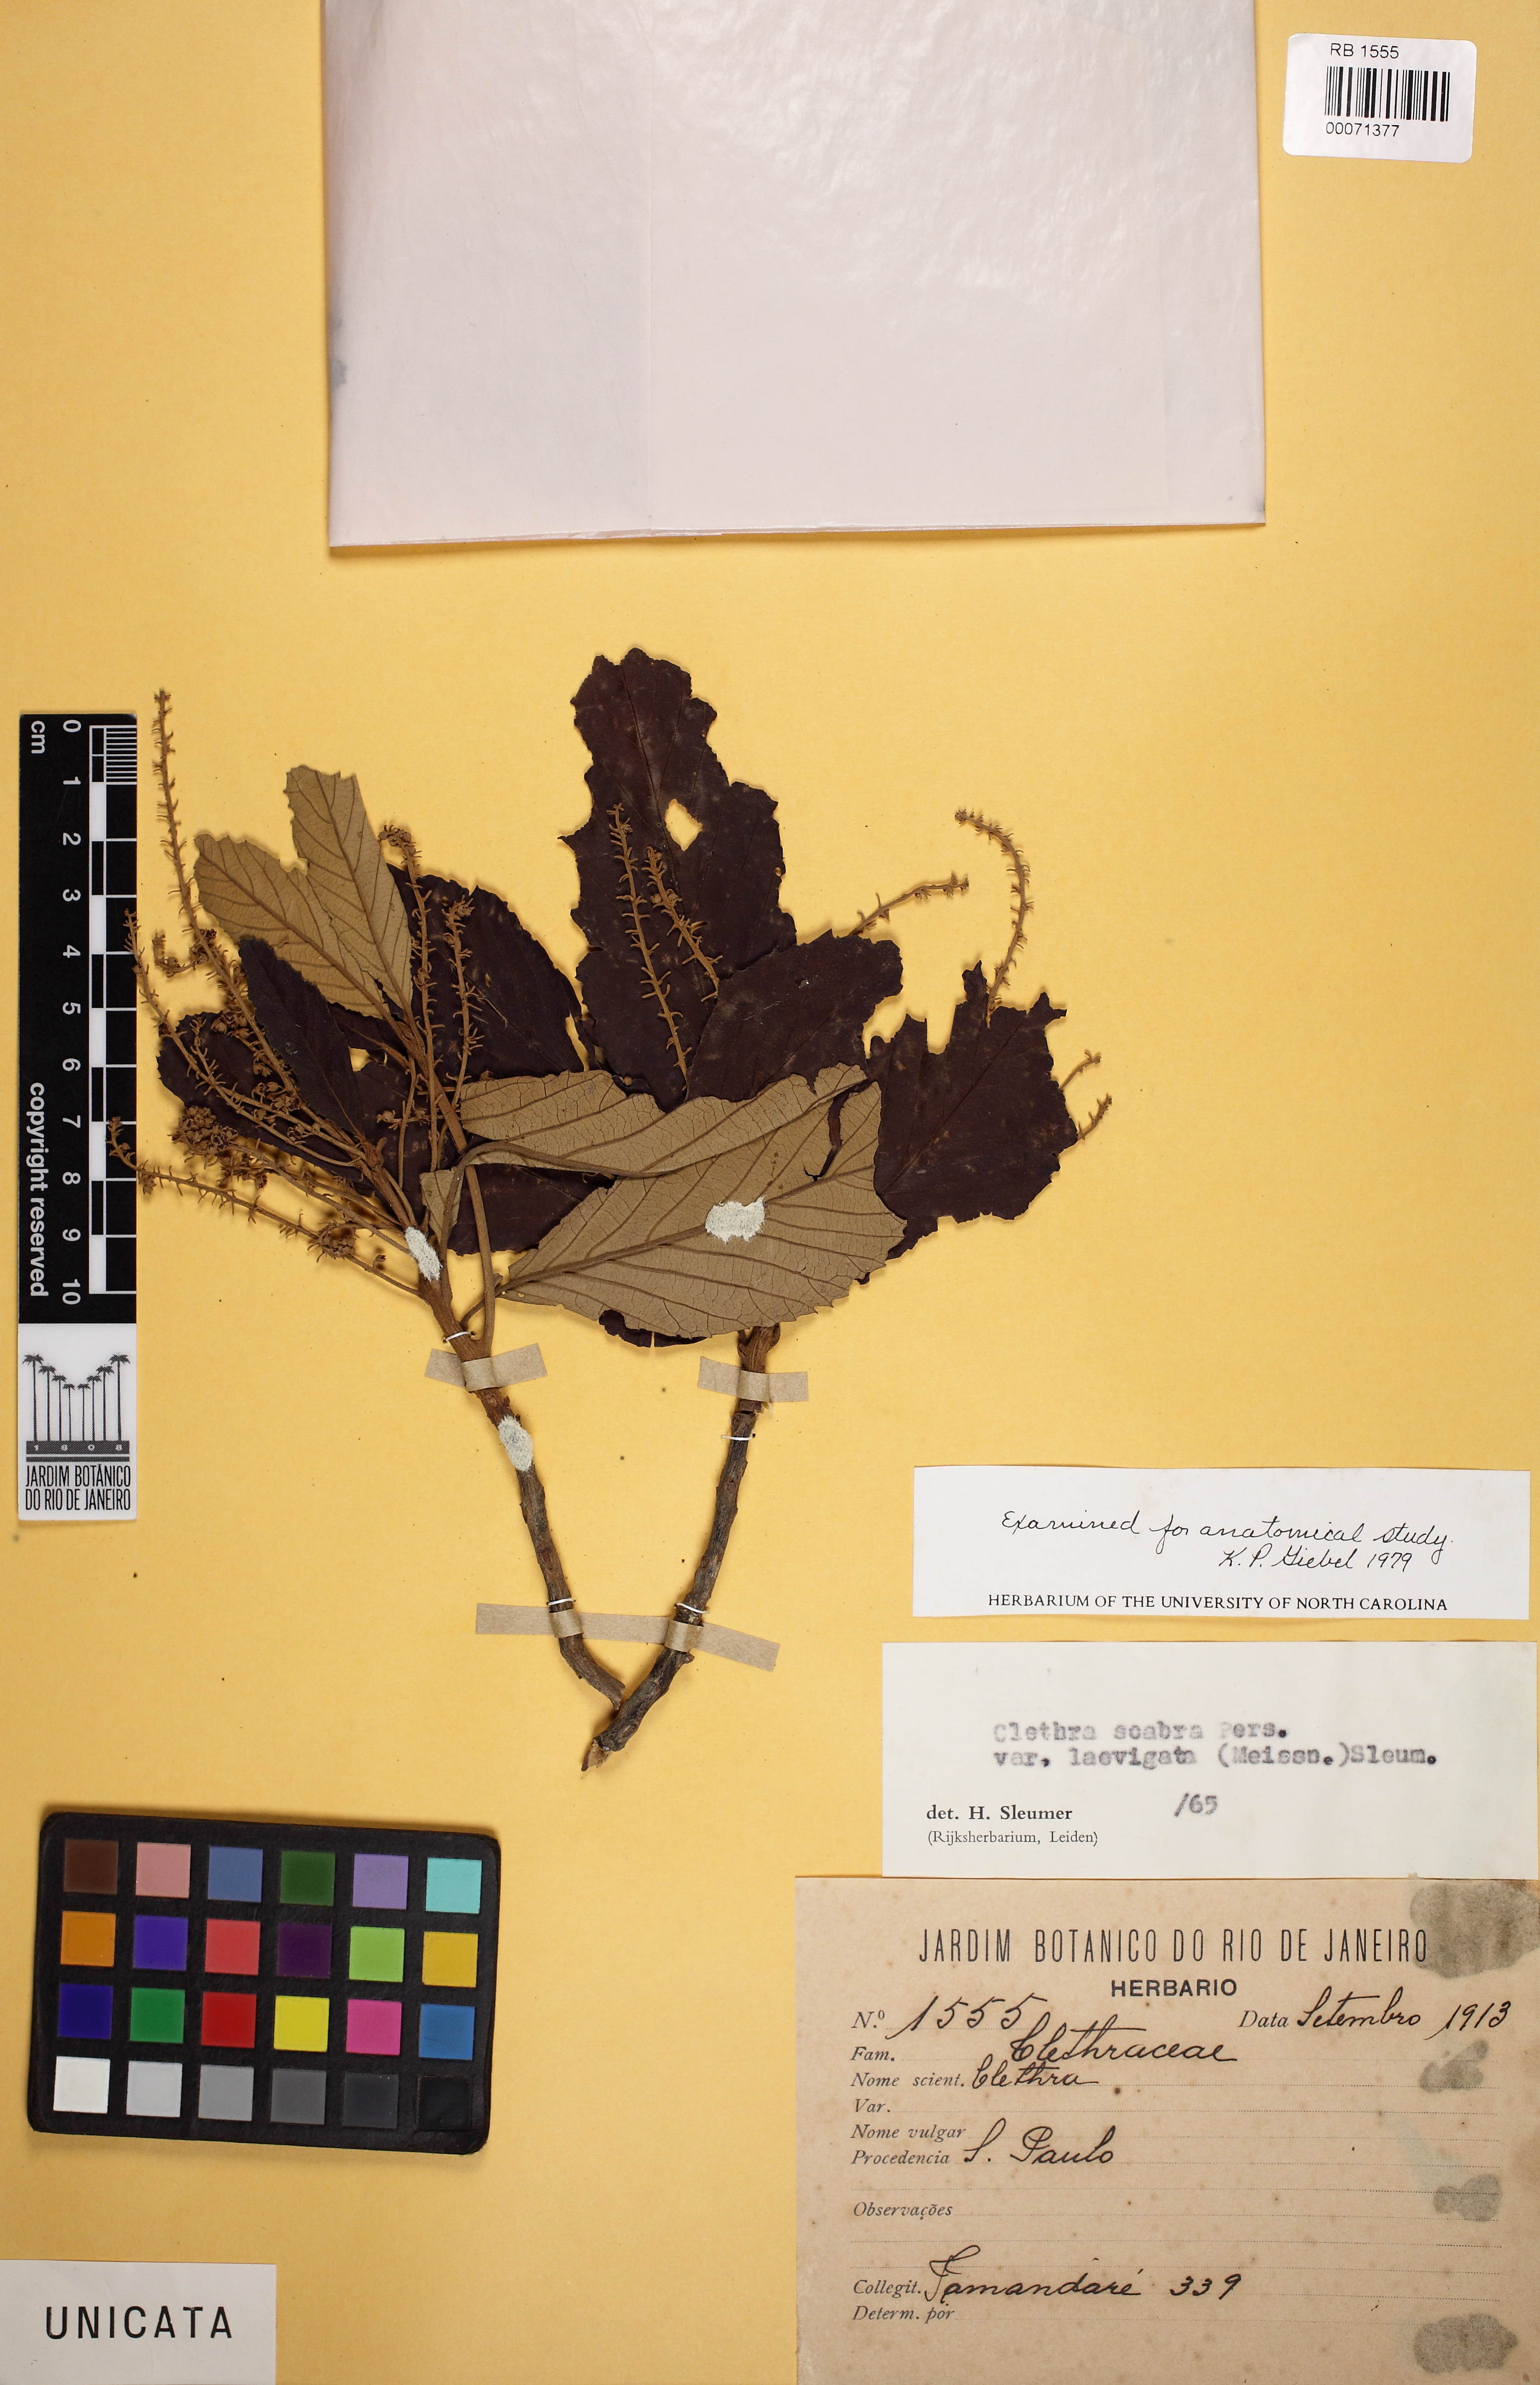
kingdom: Plantae
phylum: Tracheophyta
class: Magnoliopsida
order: Ericales
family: Clethraceae
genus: Clethra
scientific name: Clethra scabra
